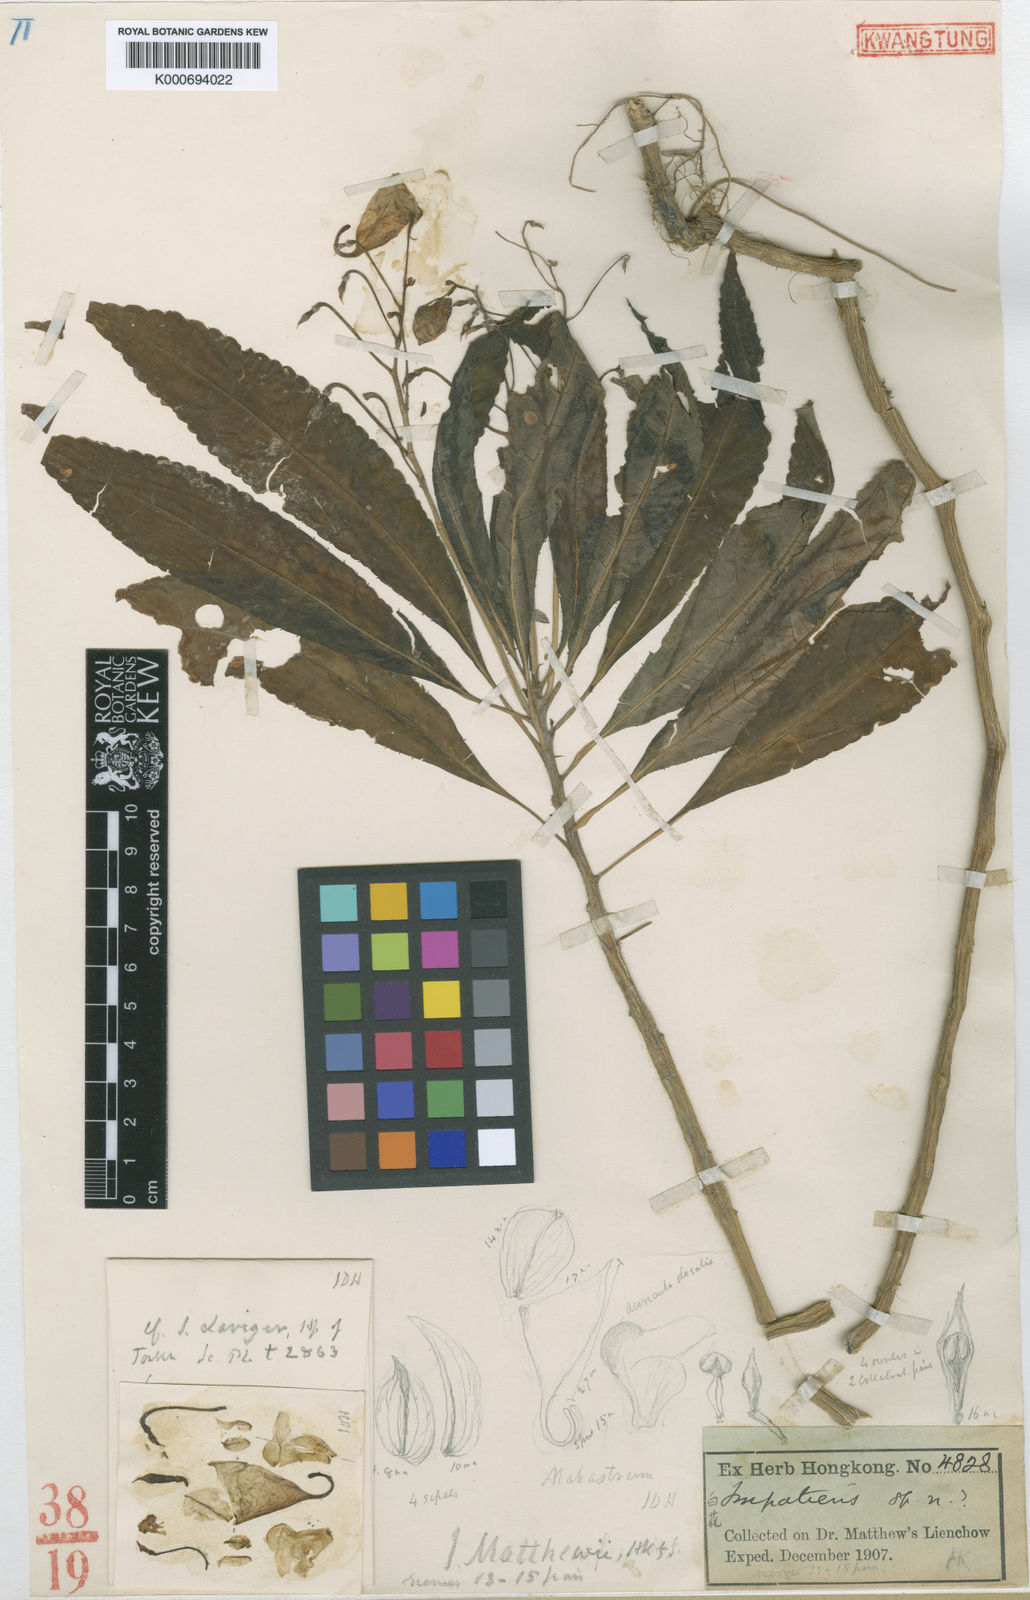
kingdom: Plantae
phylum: Tracheophyta
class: Magnoliopsida
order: Ericales
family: Balsaminaceae
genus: Impatiens
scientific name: Impatiens
